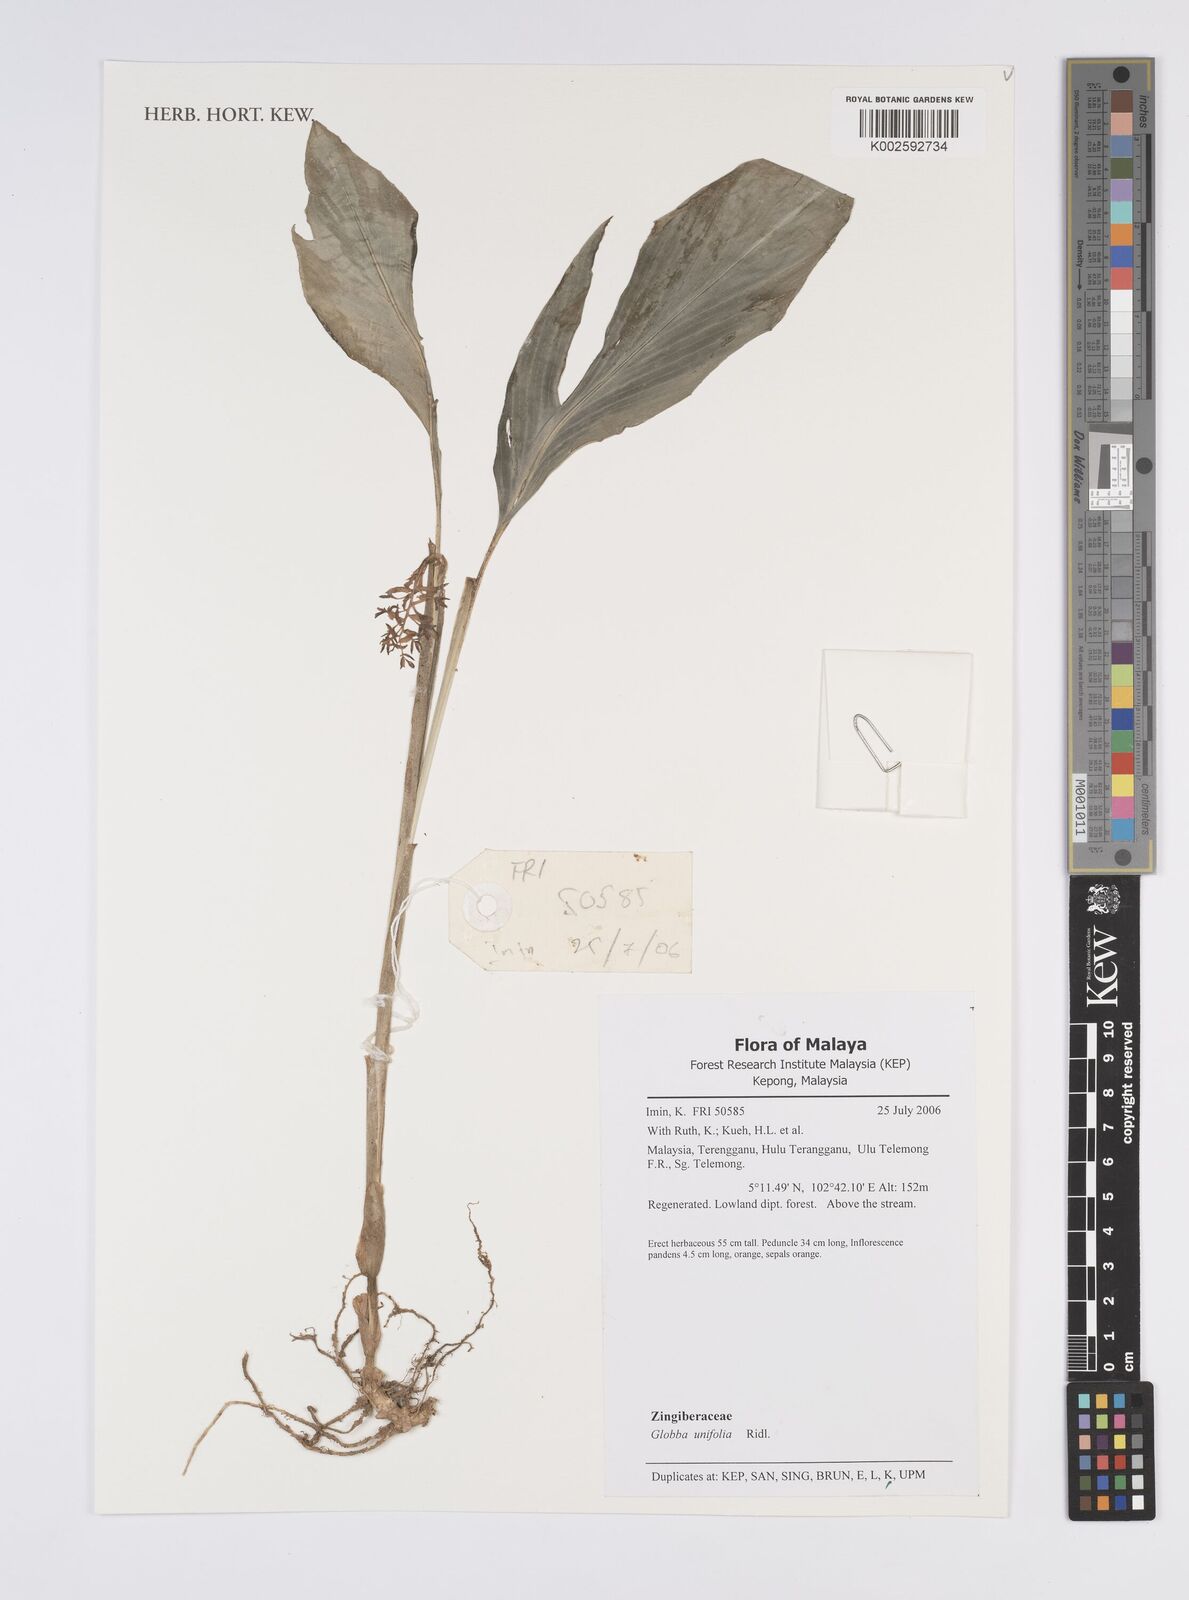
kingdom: Plantae
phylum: Tracheophyta
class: Liliopsida
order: Zingiberales
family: Zingiberaceae
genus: Globba
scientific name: Globba unifolia
